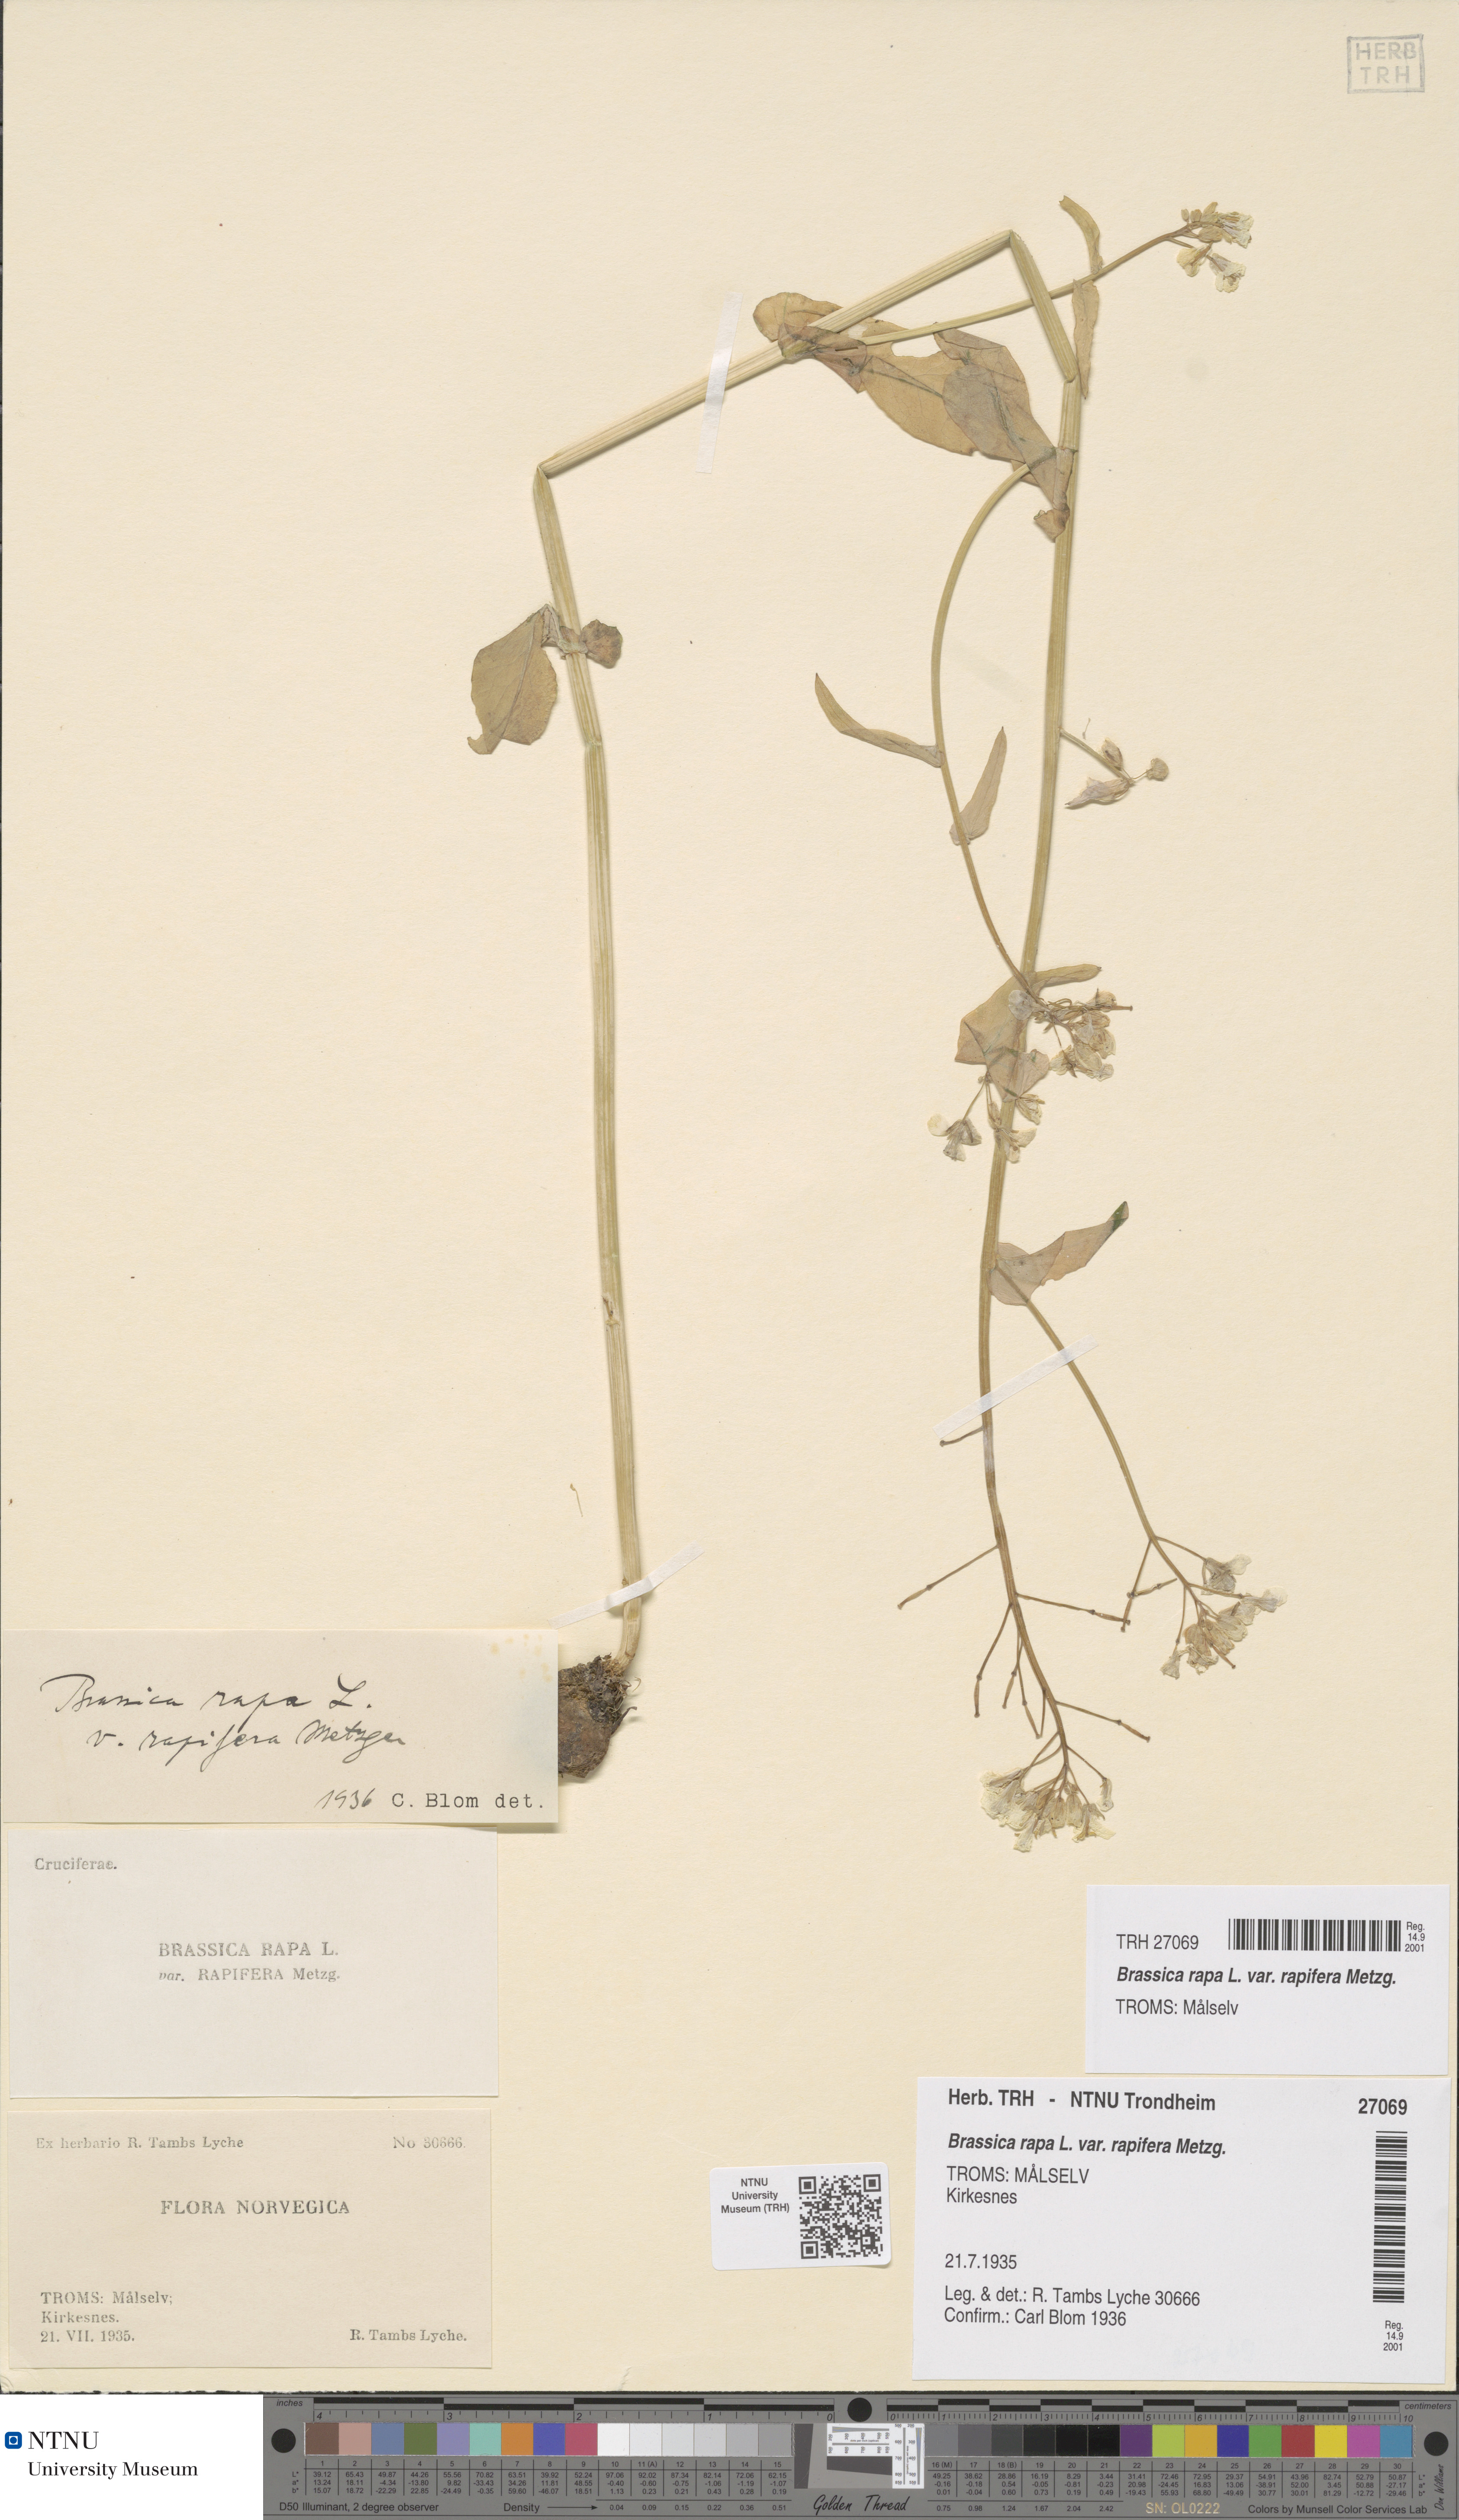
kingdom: Plantae
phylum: Tracheophyta
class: Magnoliopsida
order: Brassicales
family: Brassicaceae
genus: Brassica
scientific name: Brassica rapa
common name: Field mustard
